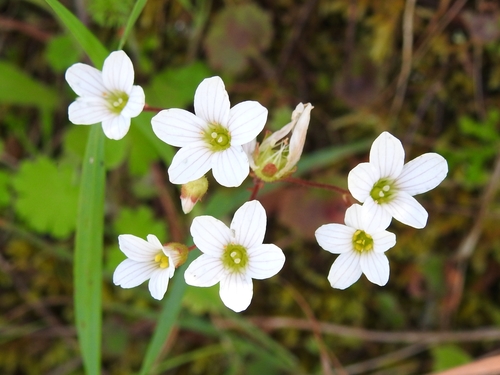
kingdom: Plantae
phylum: Tracheophyta
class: Magnoliopsida
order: Saxifragales
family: Saxifragaceae
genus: Saxifraga
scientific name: Saxifraga granulata
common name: Meadow saxifrage
